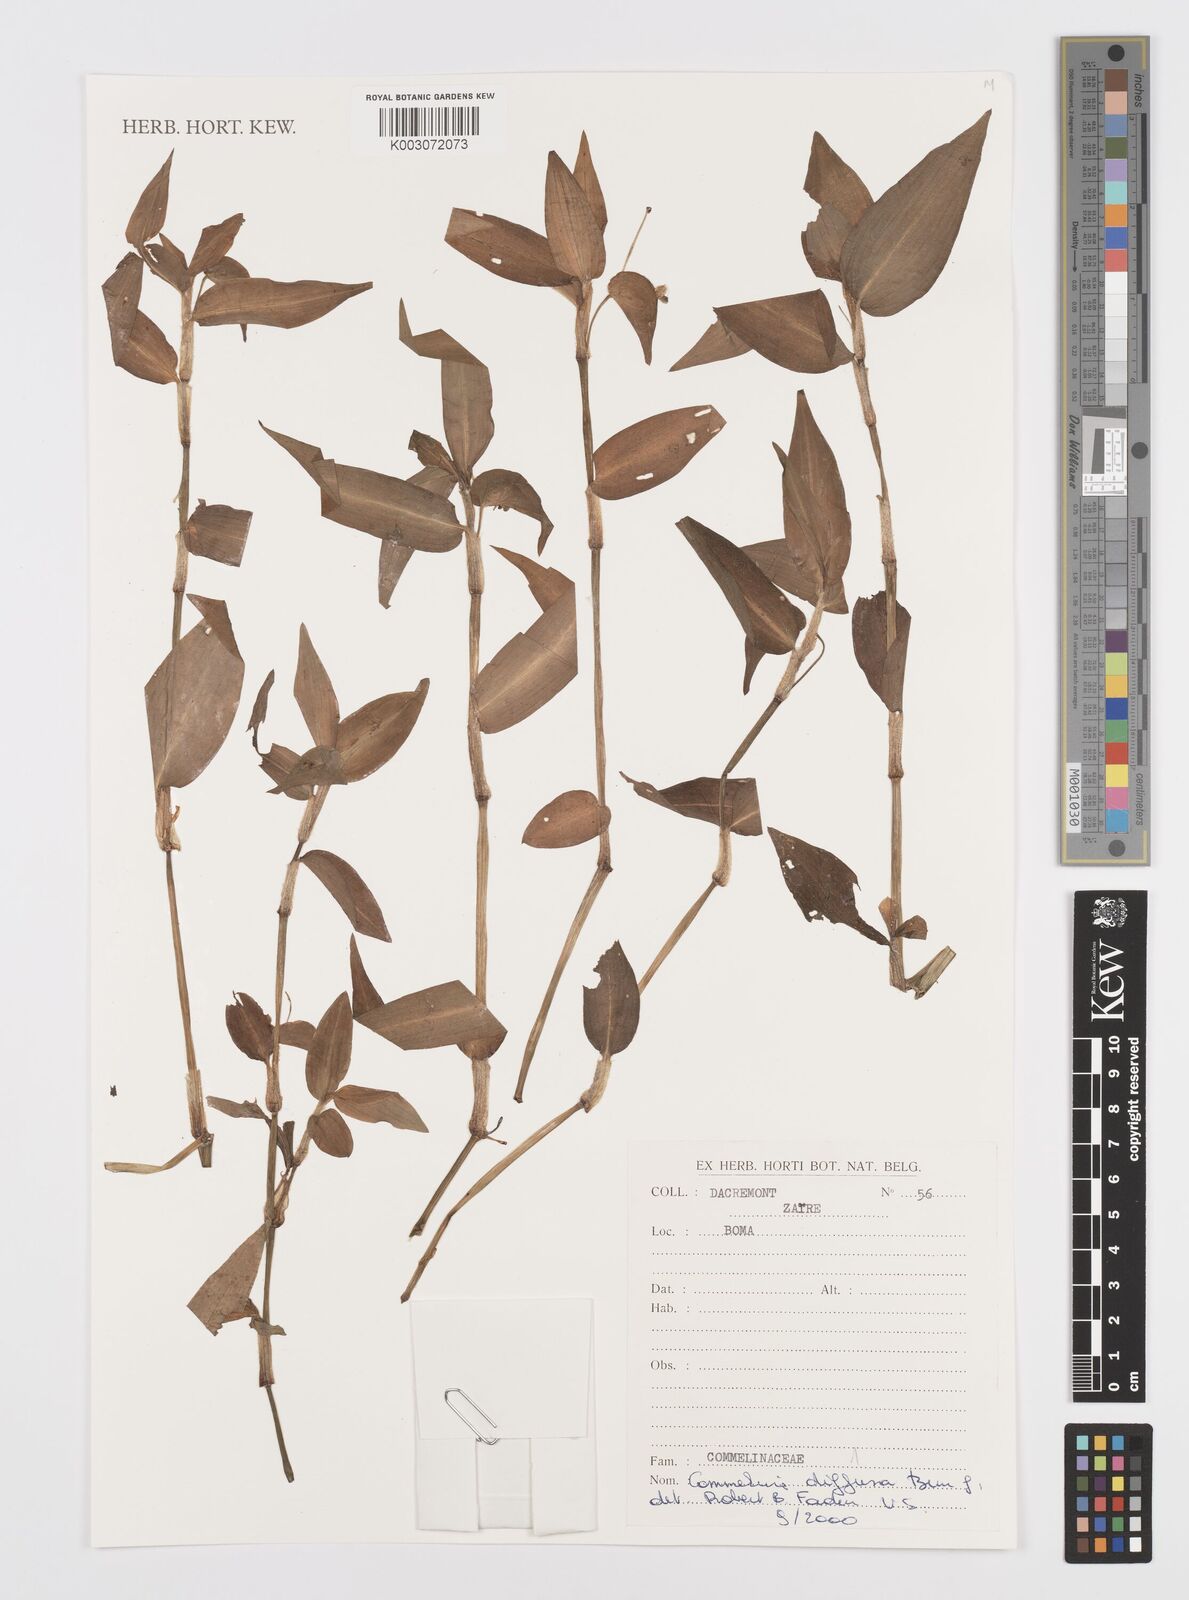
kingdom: Plantae
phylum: Tracheophyta
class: Liliopsida
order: Commelinales
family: Commelinaceae
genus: Commelina
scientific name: Commelina diffusa
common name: Climbing dayflower
